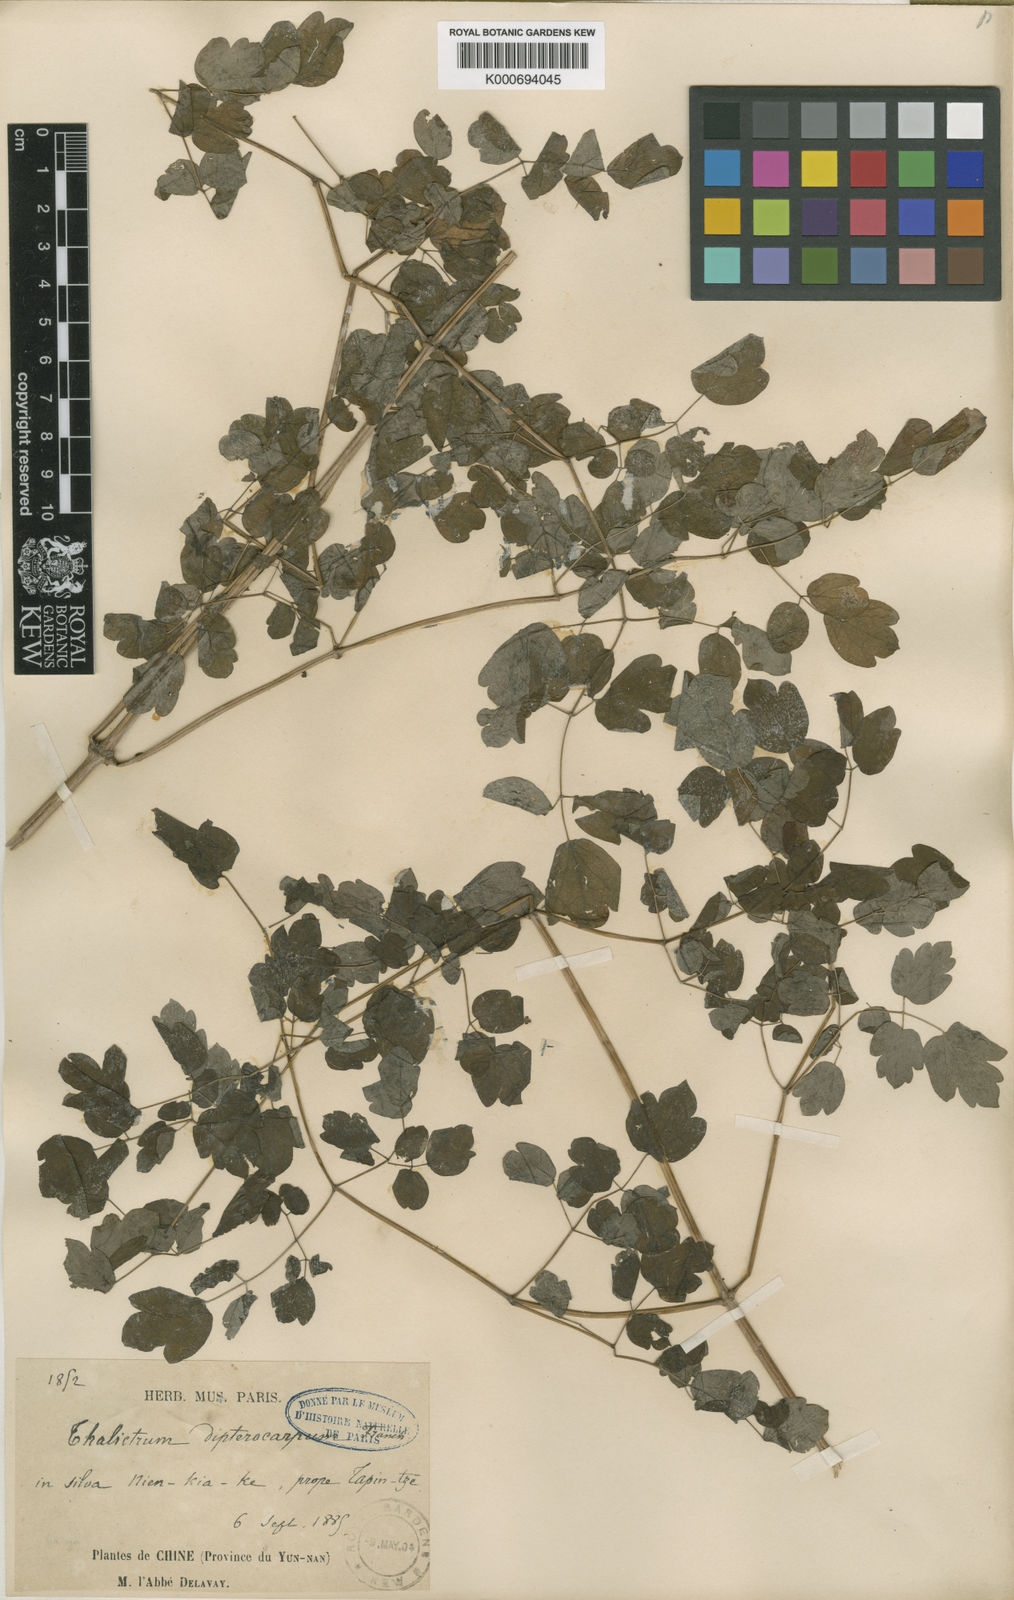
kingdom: Plantae
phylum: Tracheophyta
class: Magnoliopsida
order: Ranunculales
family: Ranunculaceae
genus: Thalictrum
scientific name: Thalictrum delavayi
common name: Chinese meadow-rue
